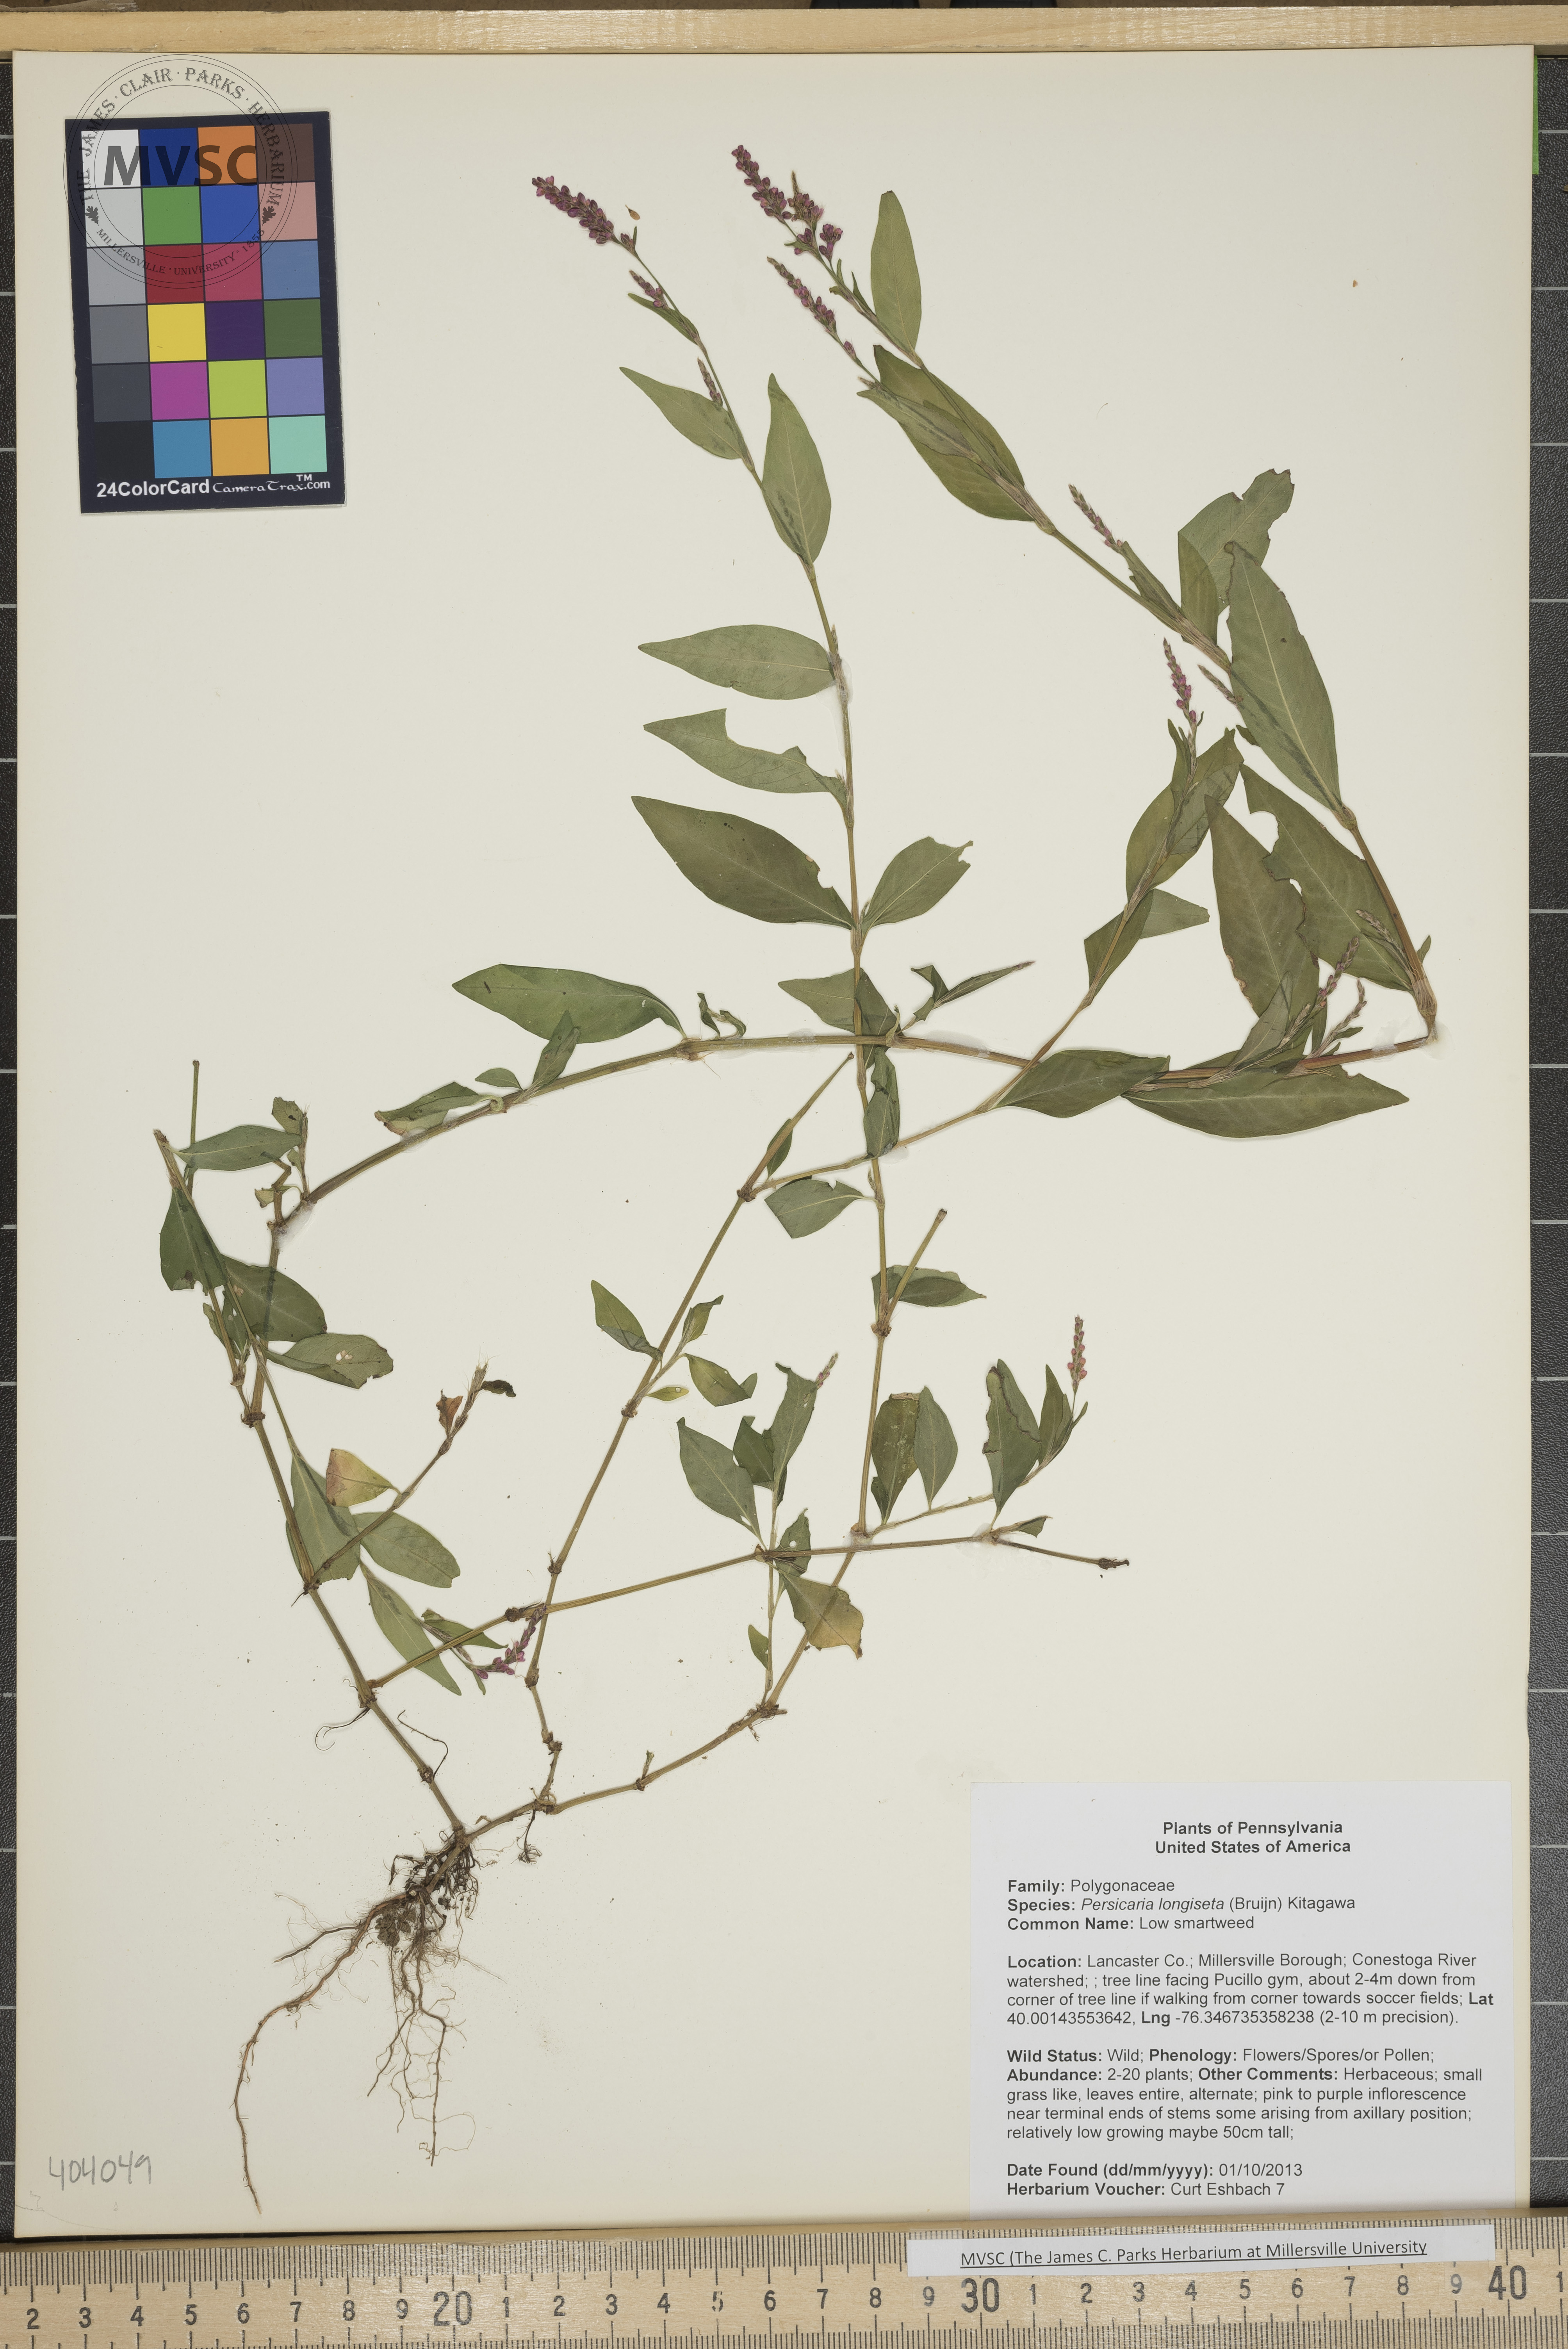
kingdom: Plantae
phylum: Tracheophyta
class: Magnoliopsida
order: Caryophyllales
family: Polygonaceae
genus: Persicaria
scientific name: Persicaria longiseta
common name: Low smartweed
